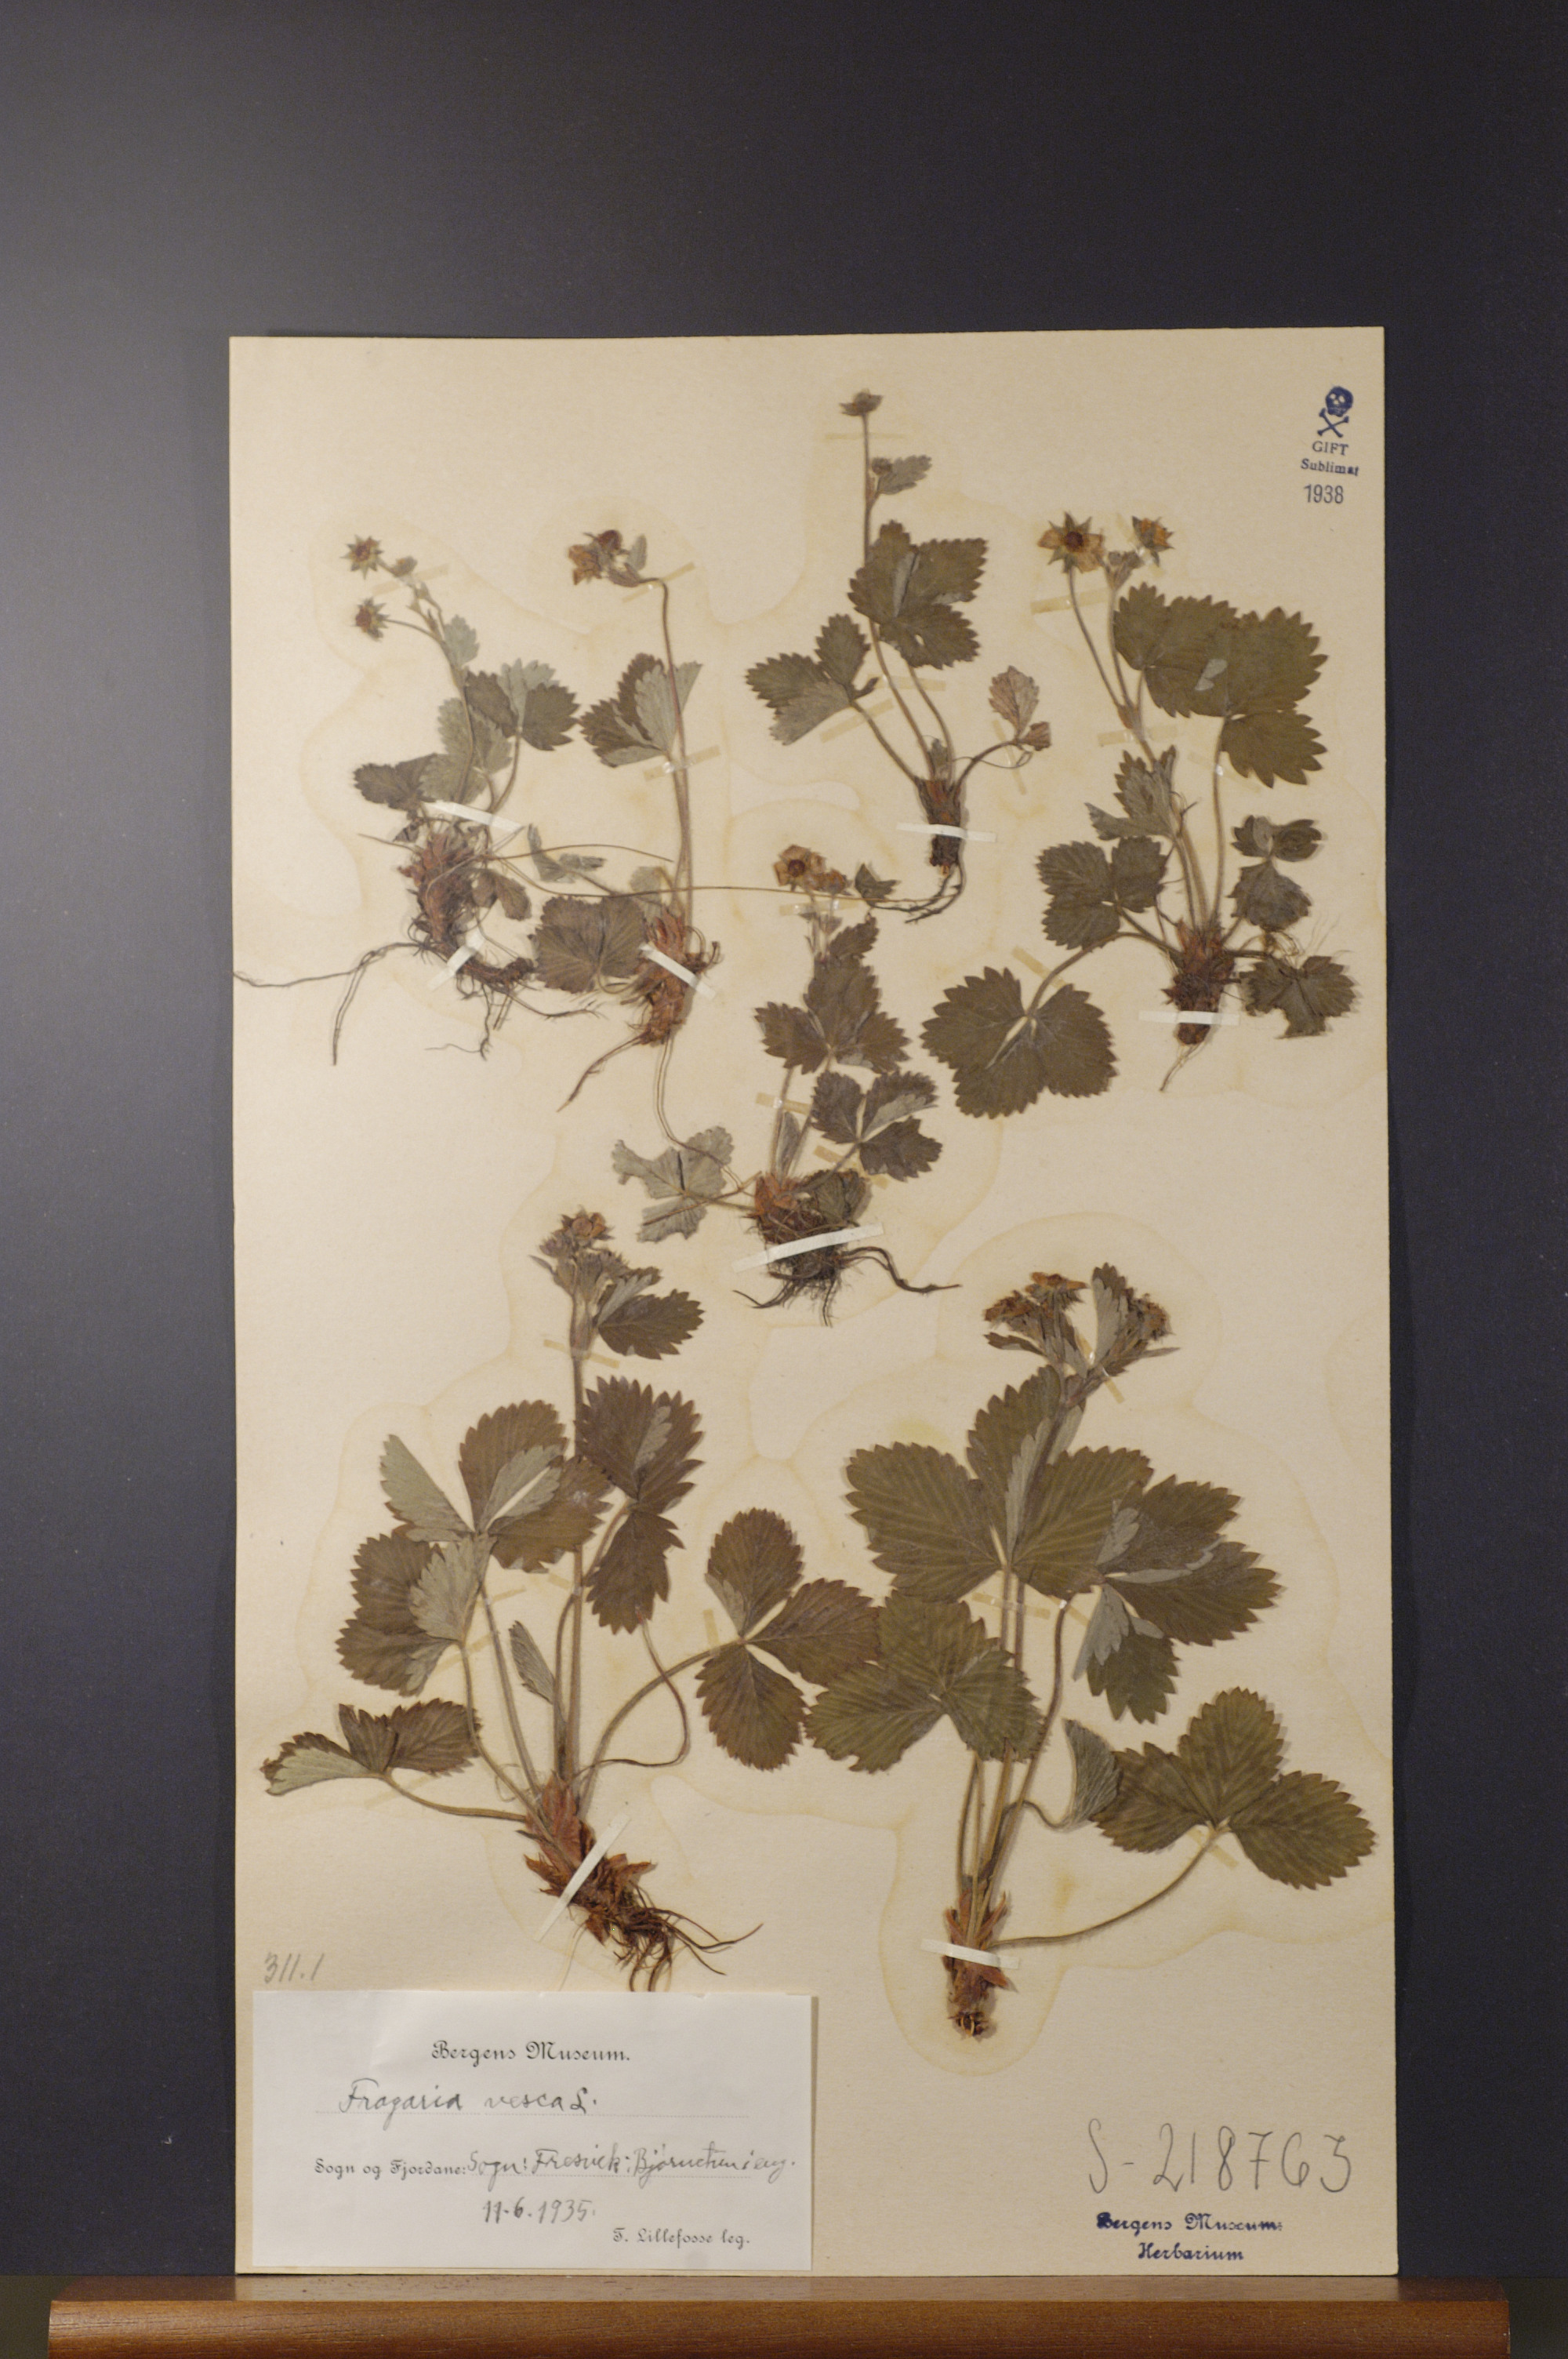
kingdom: Plantae
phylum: Tracheophyta
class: Magnoliopsida
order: Rosales
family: Rosaceae
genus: Fragaria
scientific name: Fragaria vesca
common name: Wild strawberry
